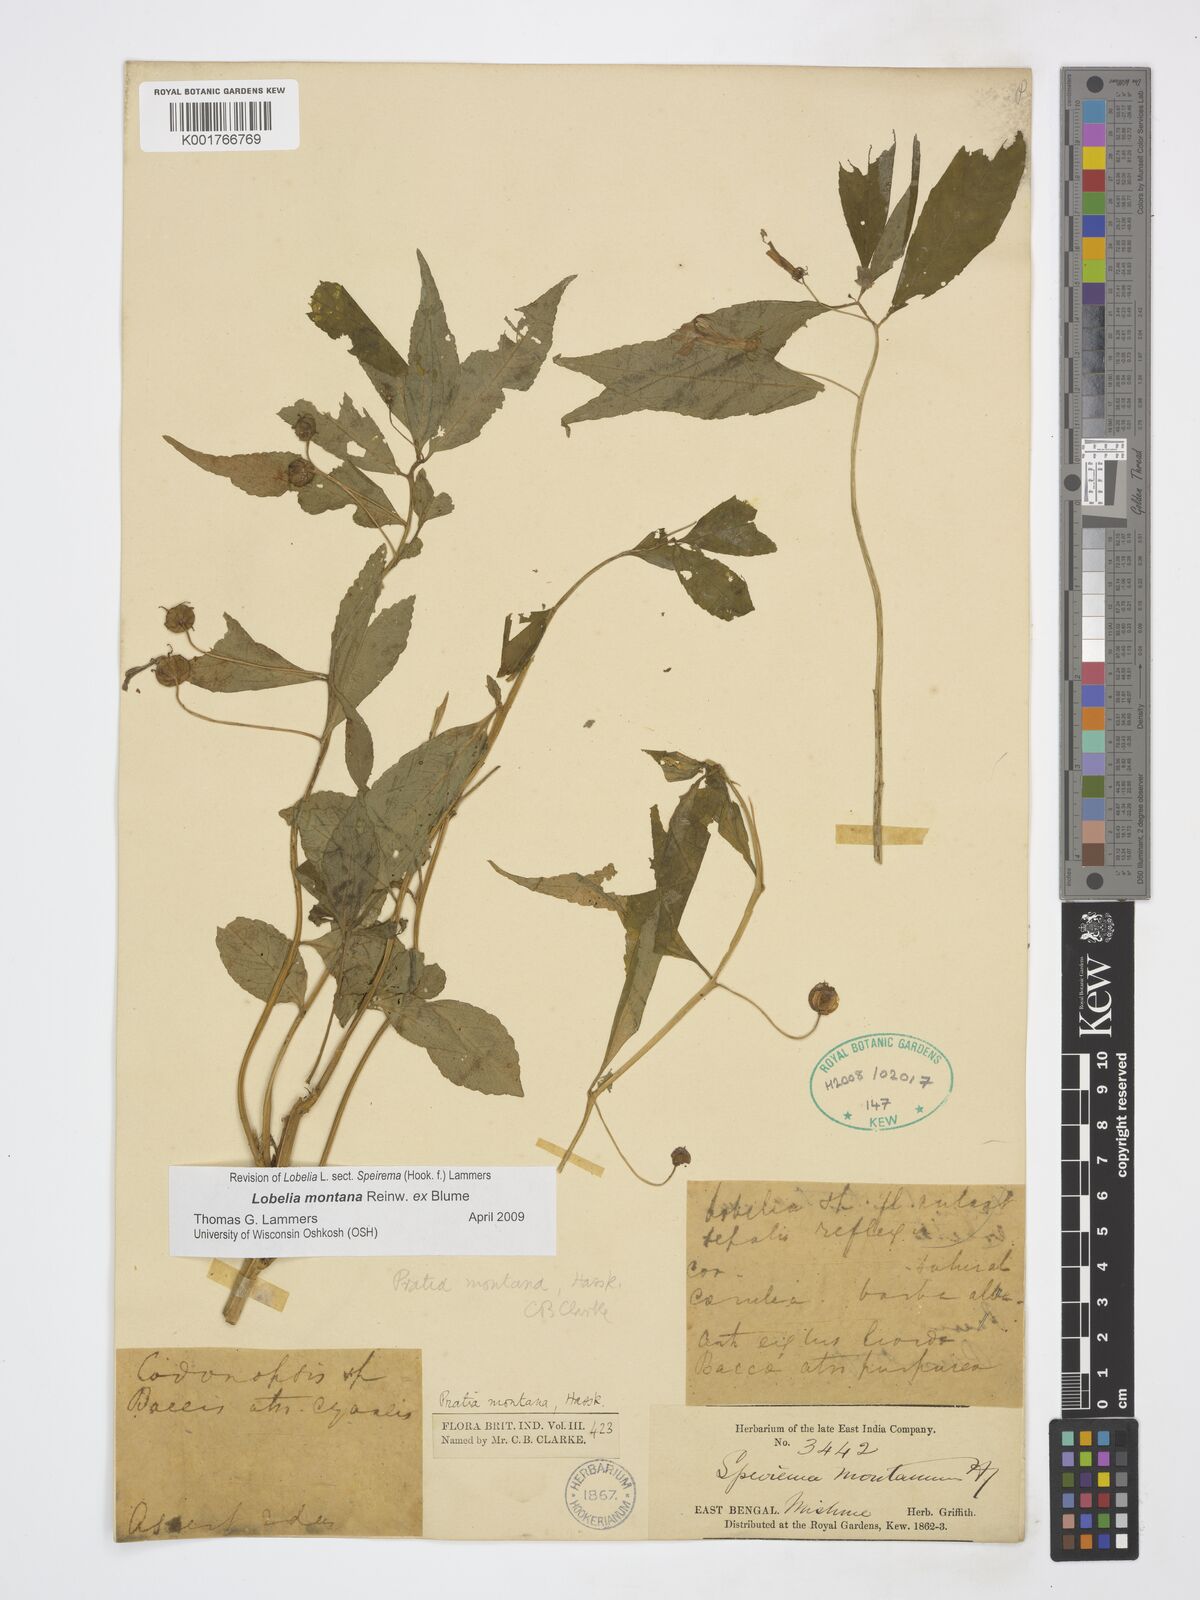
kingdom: Plantae
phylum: Tracheophyta
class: Magnoliopsida
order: Asterales
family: Campanulaceae
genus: Lobelia
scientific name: Lobelia montana
